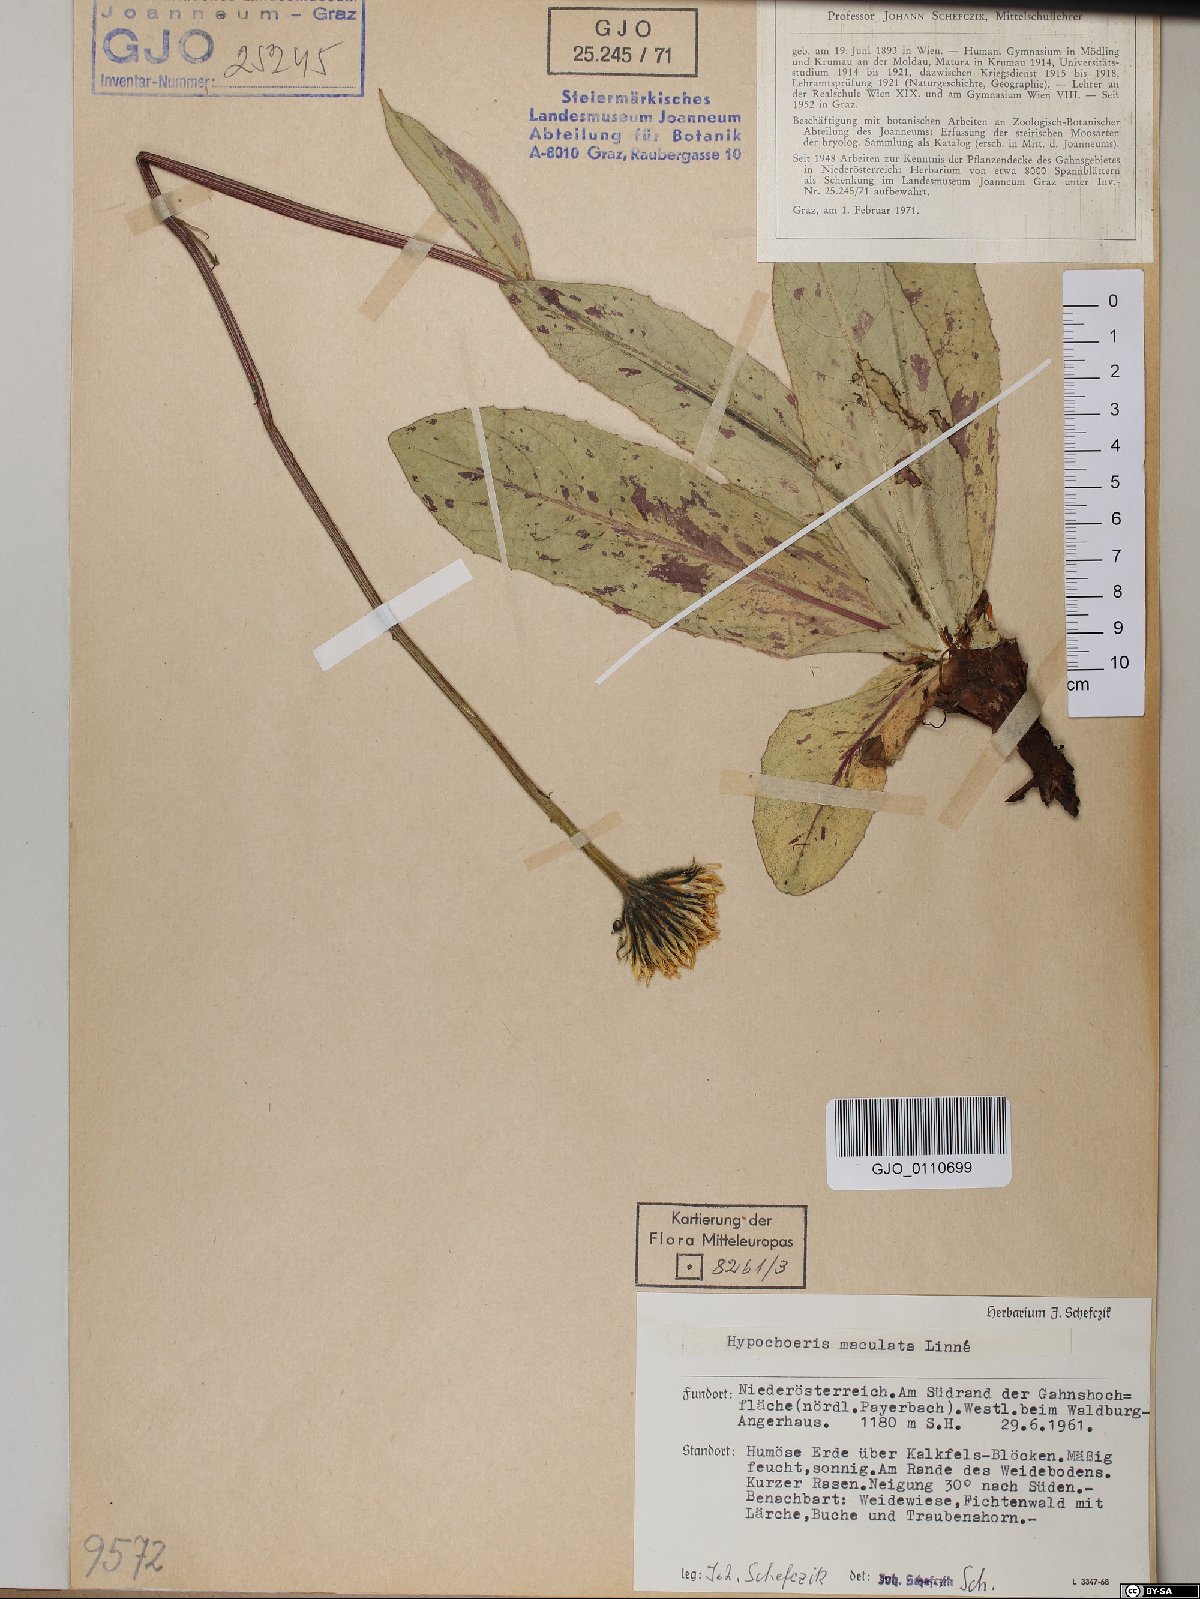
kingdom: Plantae
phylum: Tracheophyta
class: Magnoliopsida
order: Asterales
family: Asteraceae
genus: Trommsdorffia
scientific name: Trommsdorffia maculata
